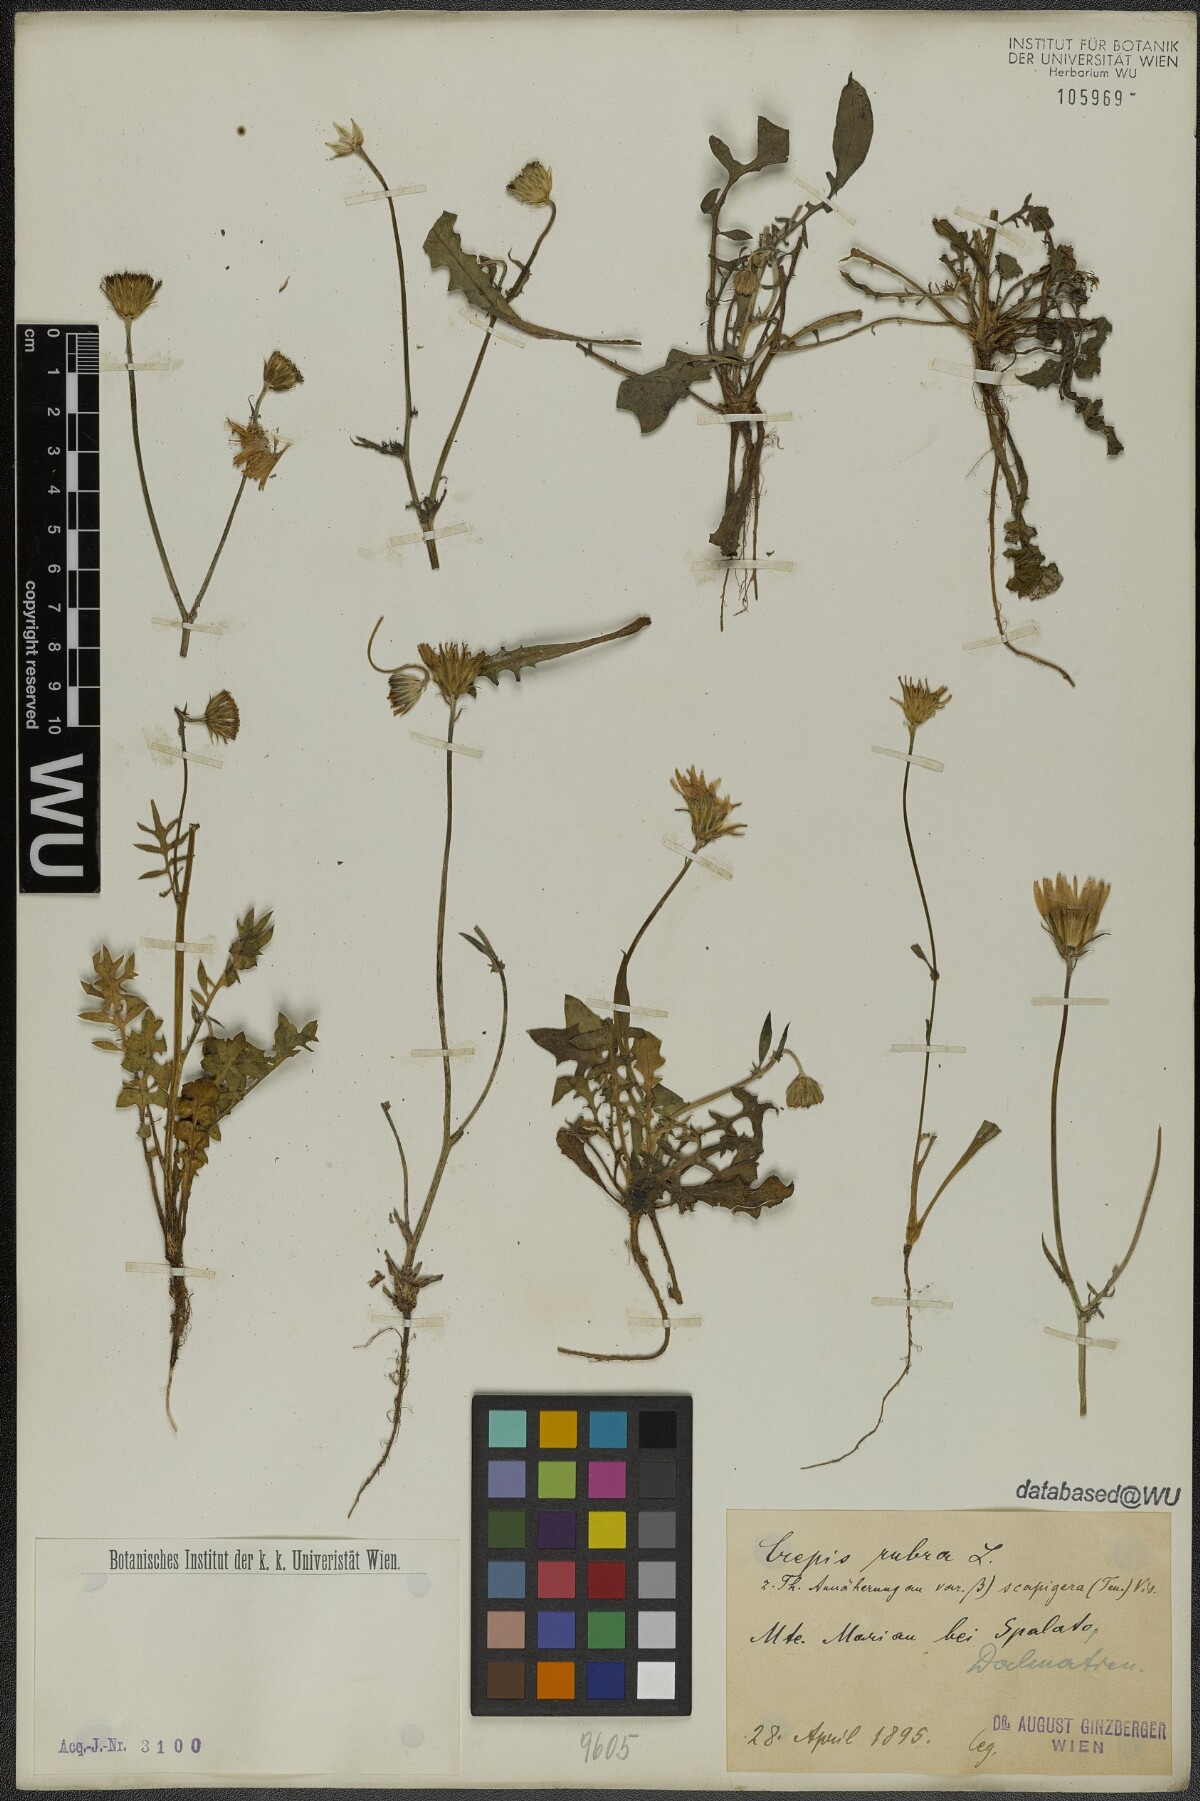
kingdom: Plantae
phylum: Tracheophyta
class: Magnoliopsida
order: Asterales
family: Asteraceae
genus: Crepis
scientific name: Crepis rubra
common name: Pink hawk's-beard
